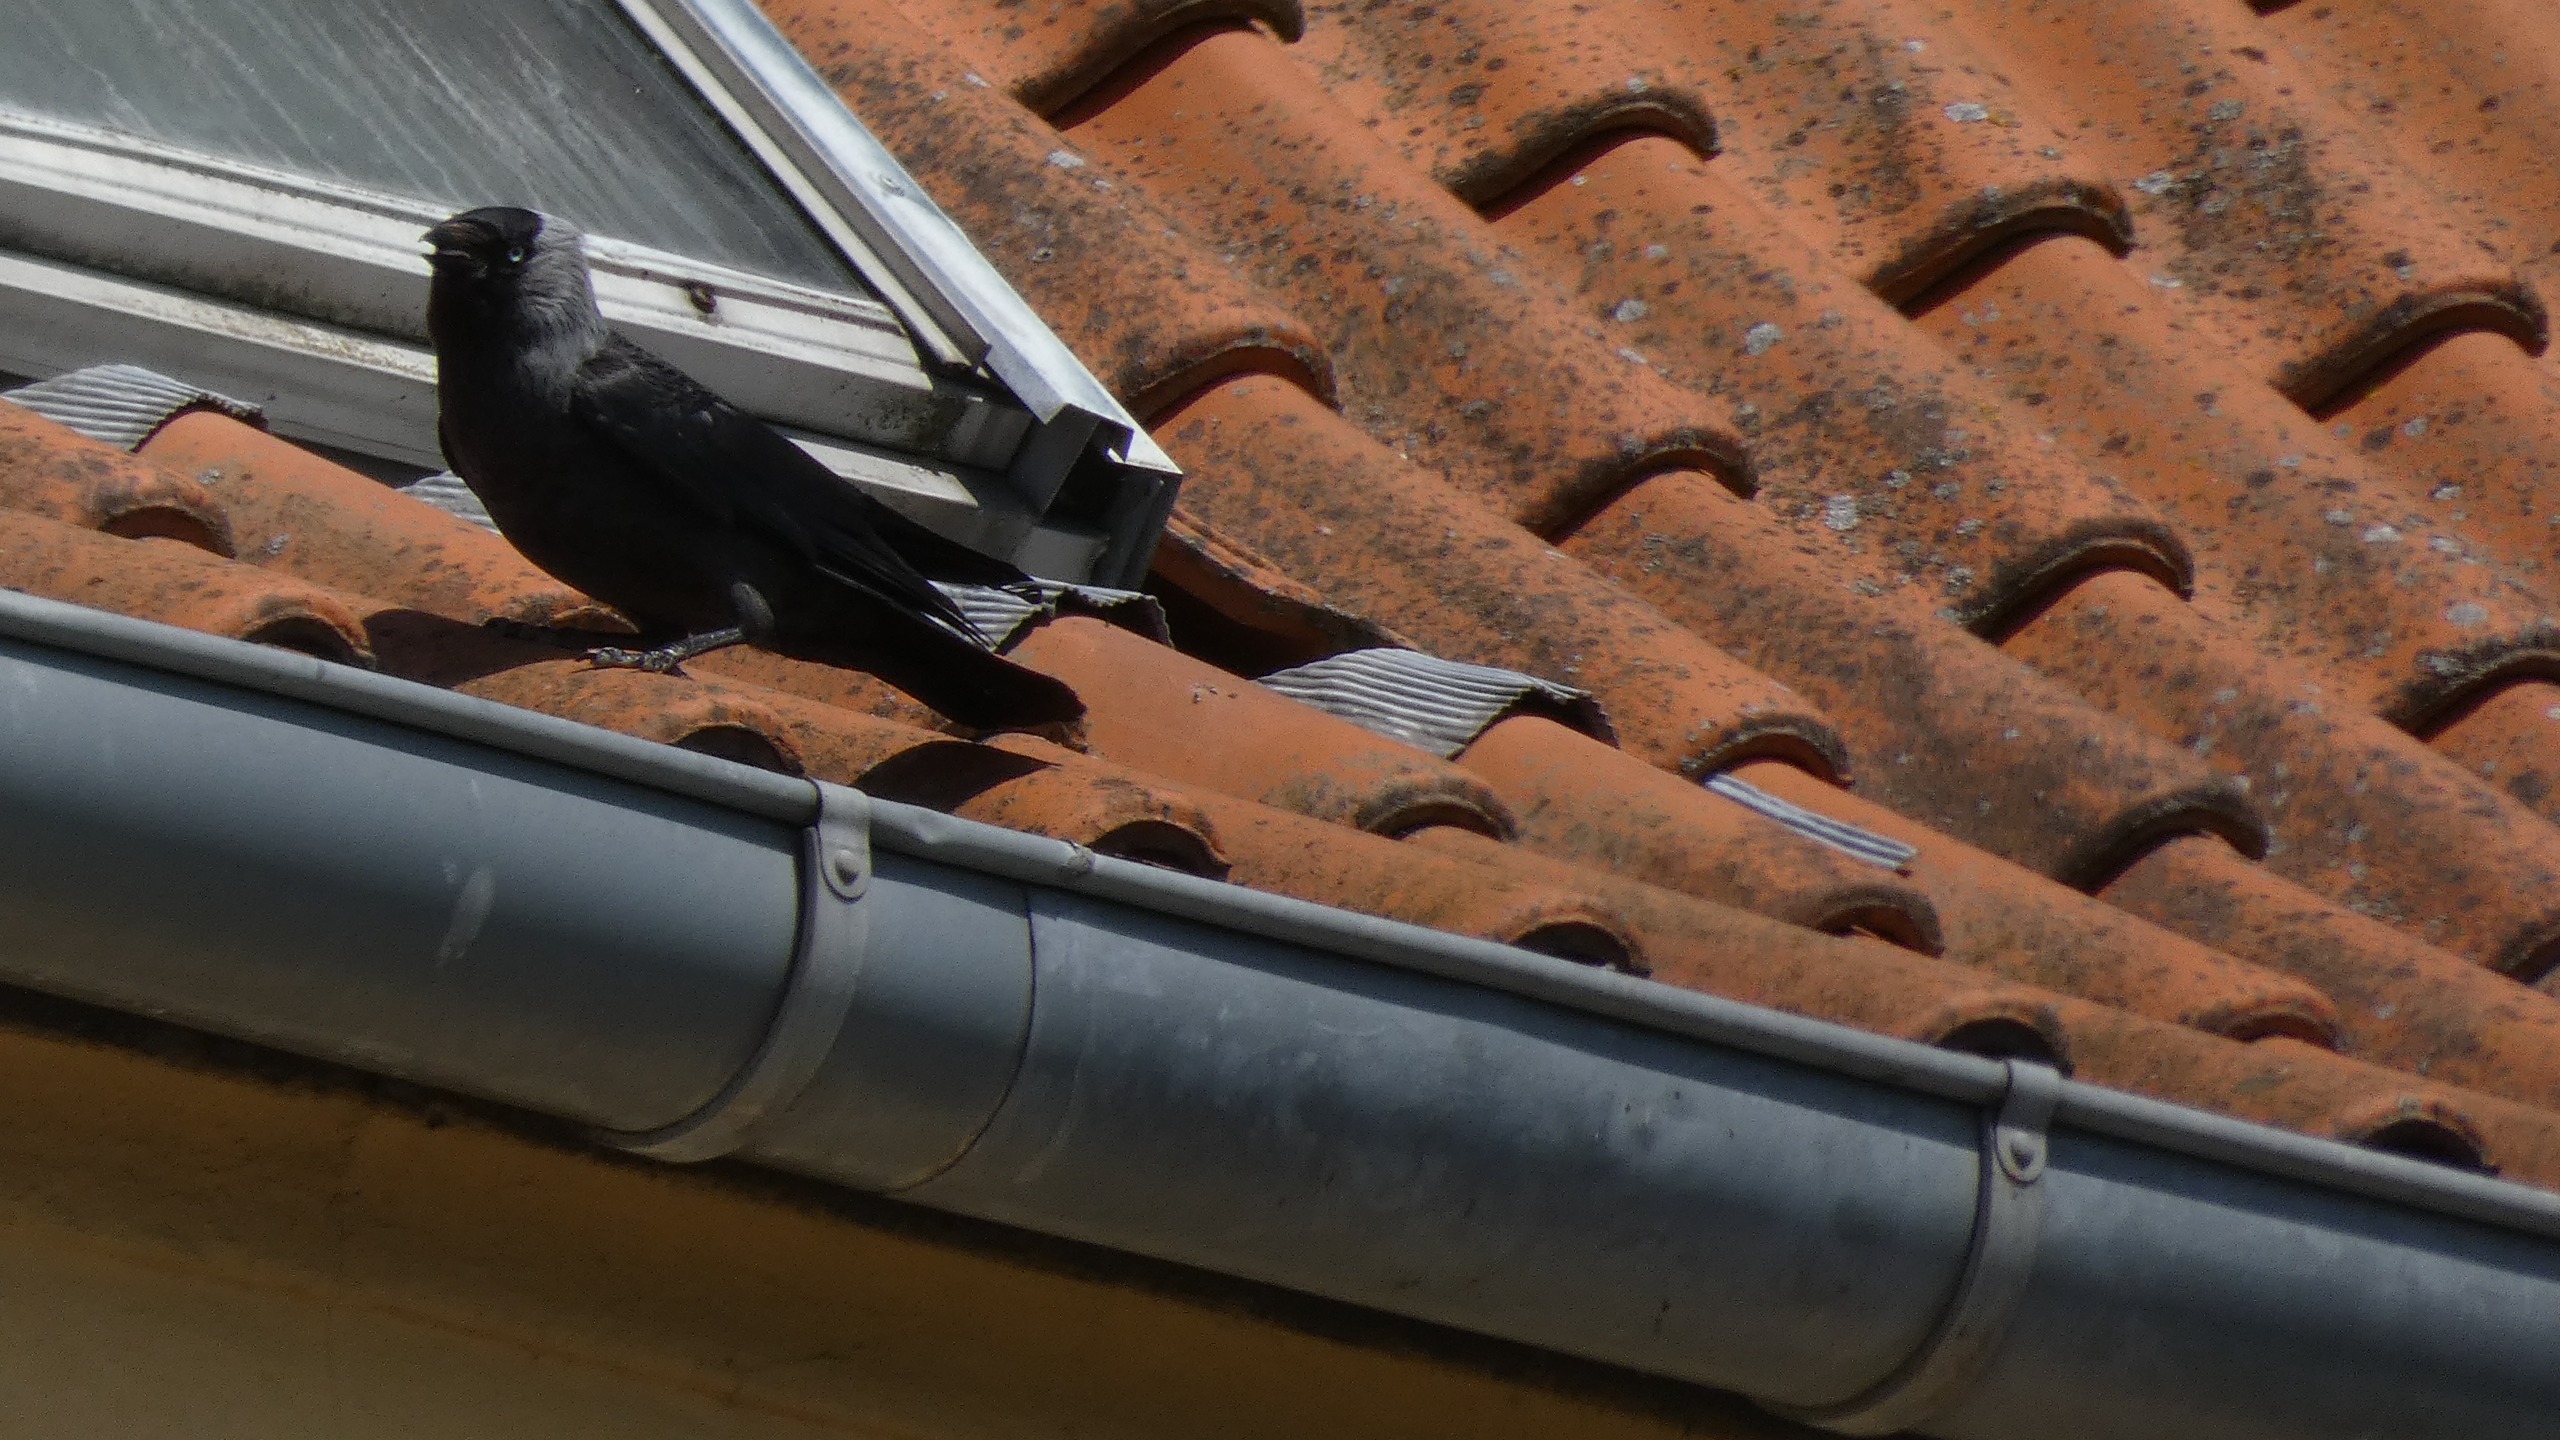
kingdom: Animalia
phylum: Chordata
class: Aves
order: Passeriformes
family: Corvidae
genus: Coloeus
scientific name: Coloeus monedula
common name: Allike
